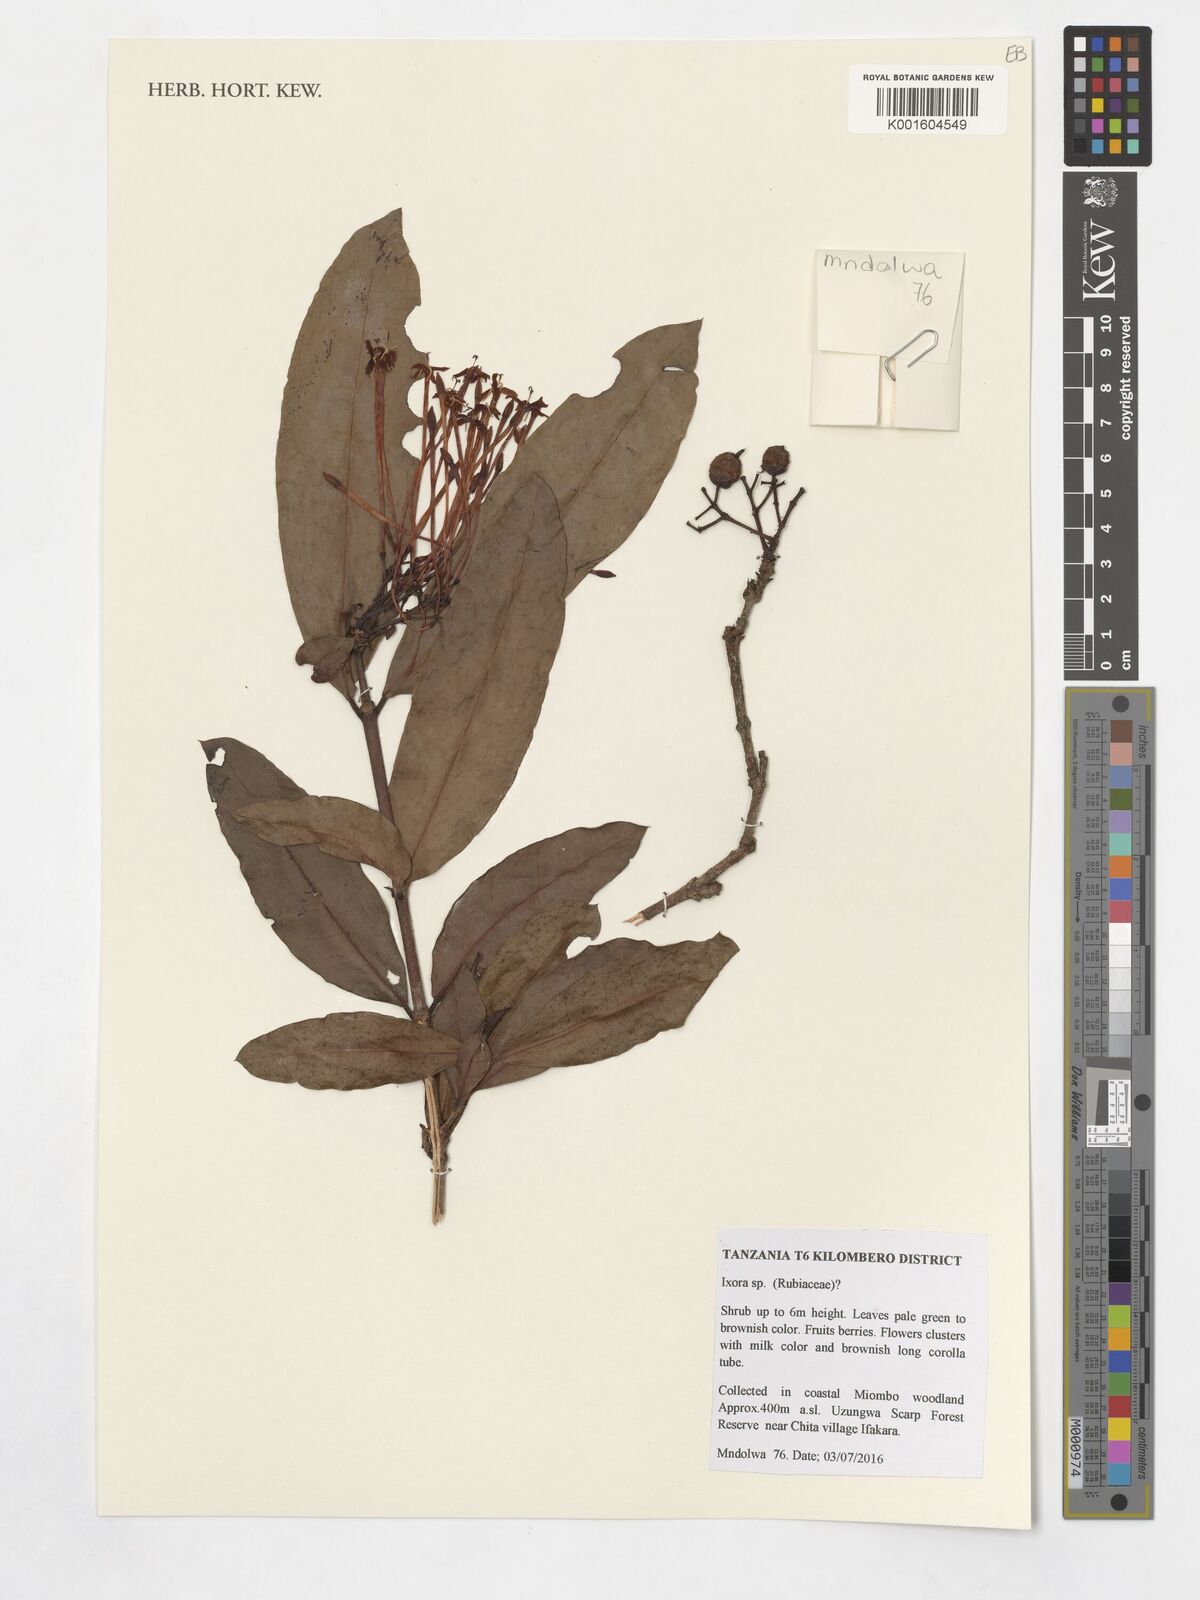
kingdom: Plantae
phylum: Tracheophyta
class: Magnoliopsida
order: Gentianales
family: Rubiaceae
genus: Ixora
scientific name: Ixora
